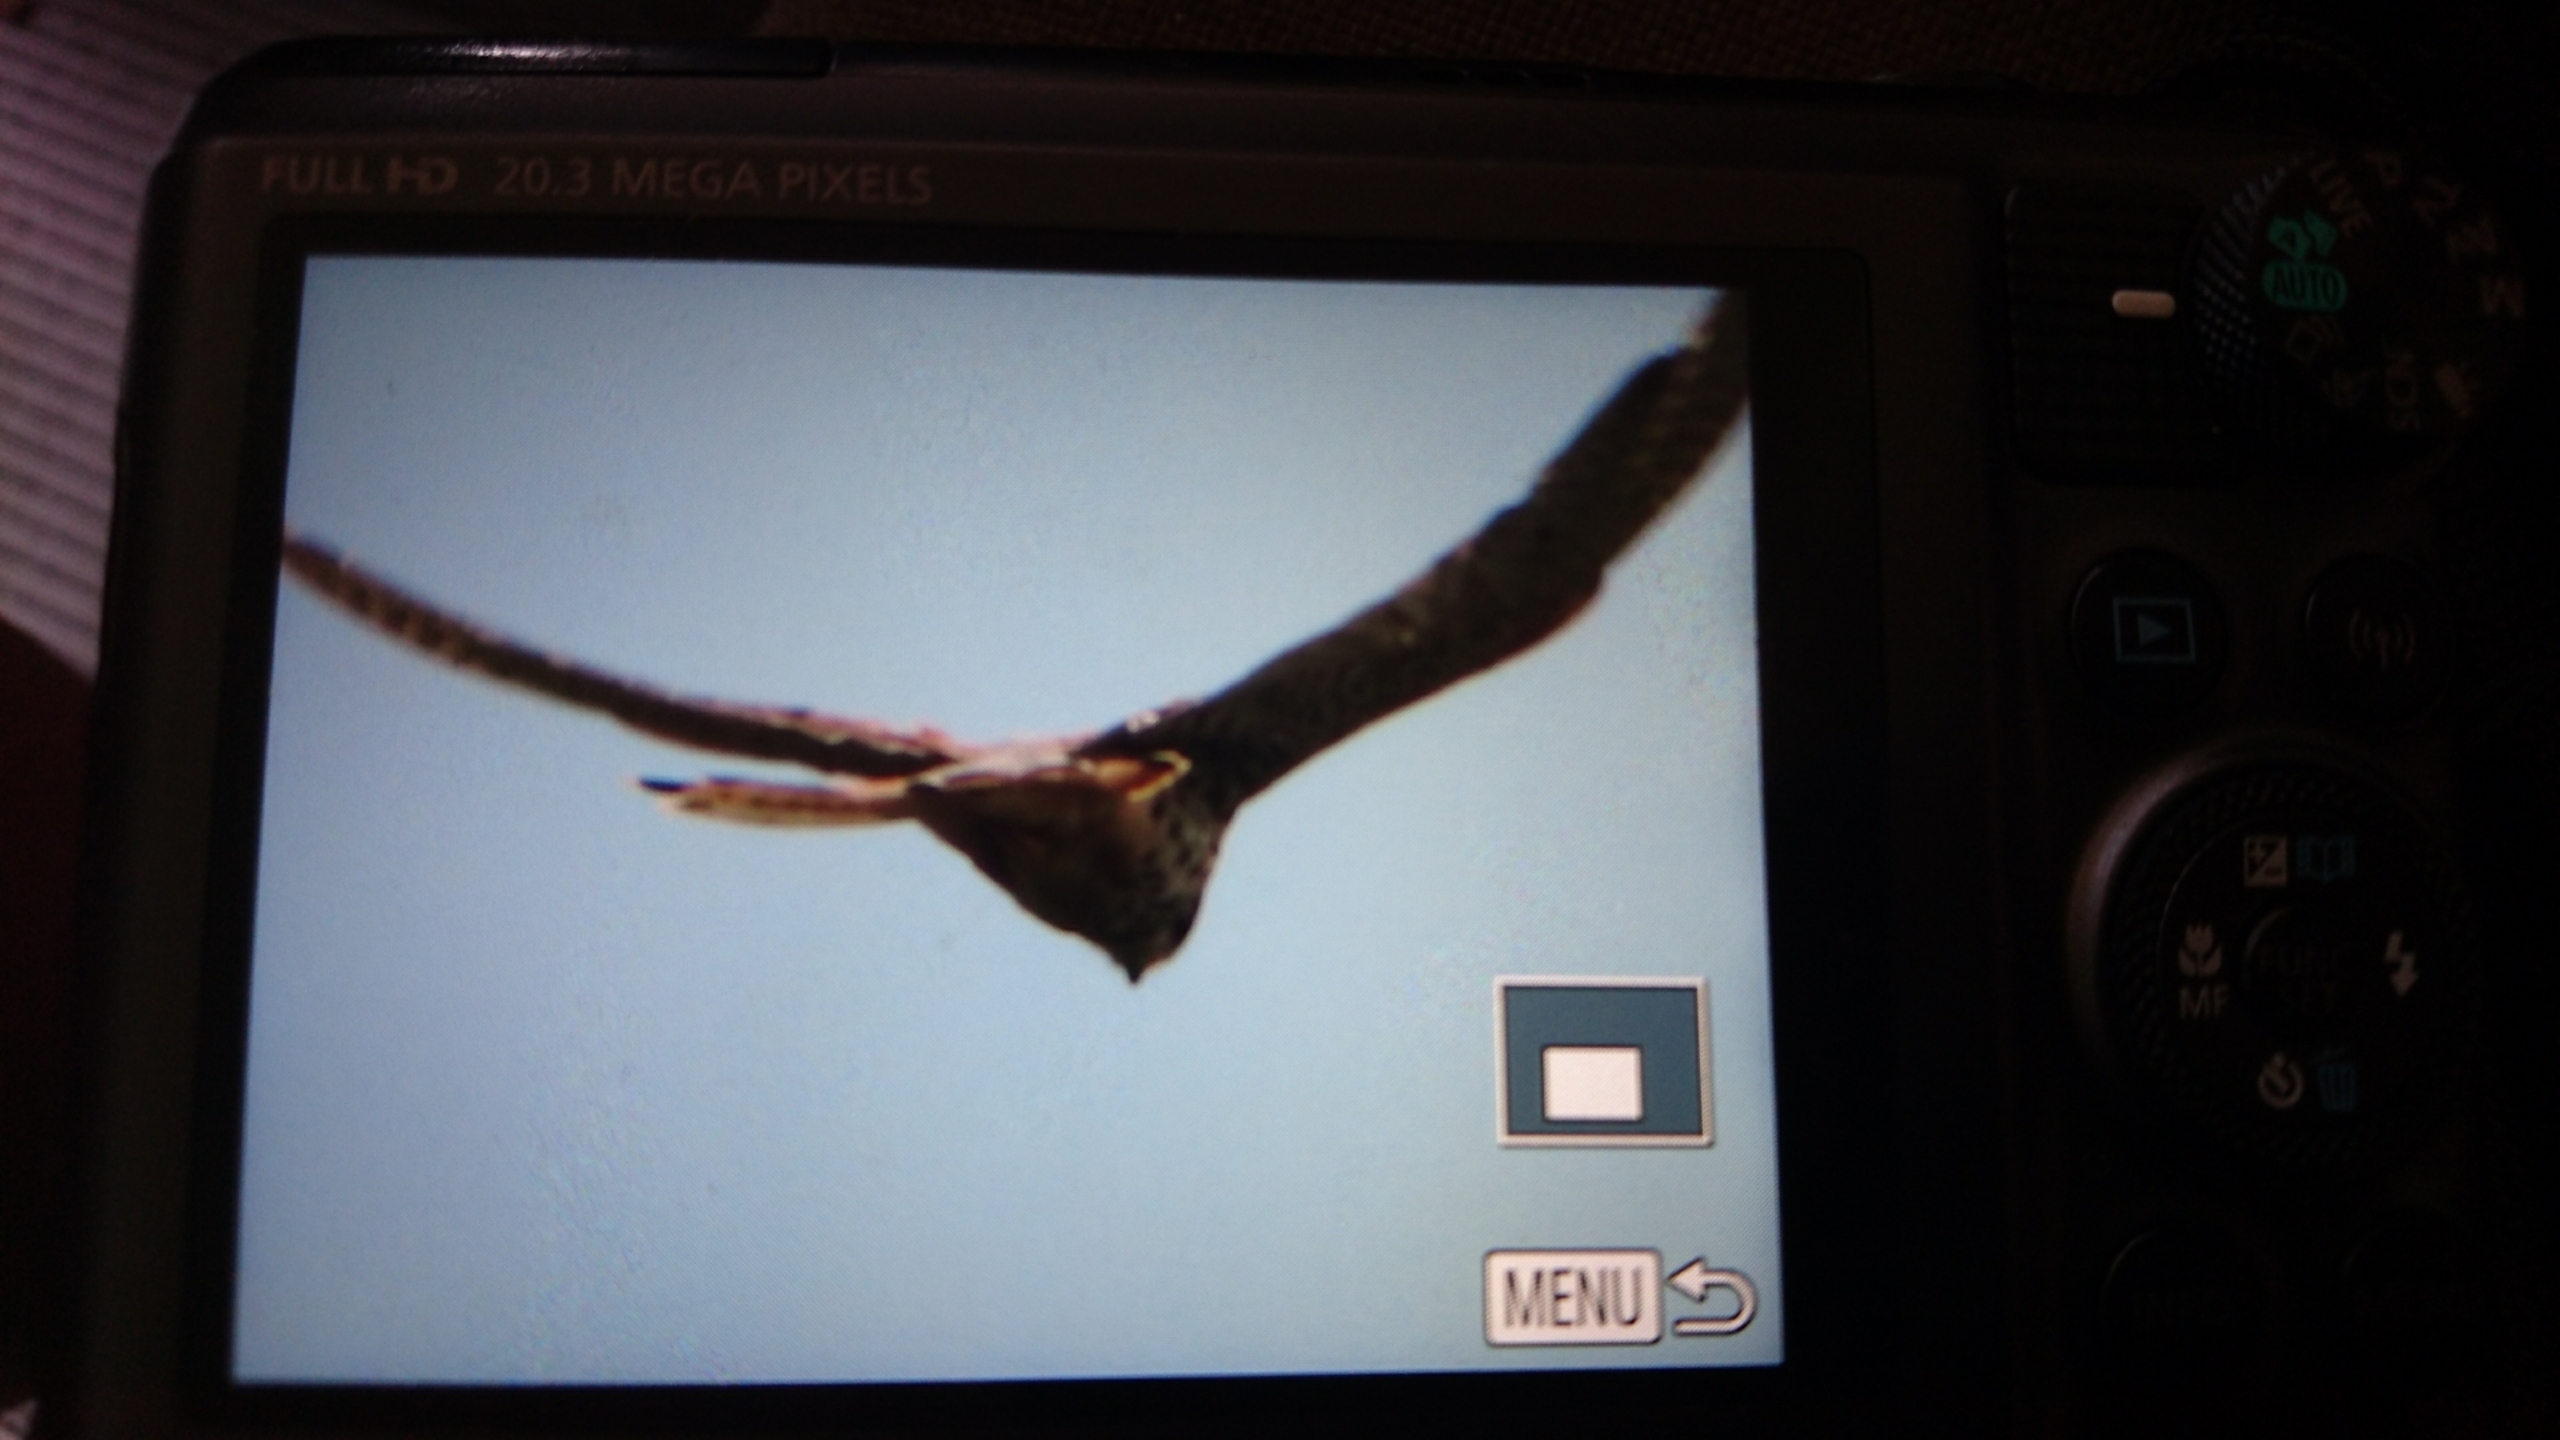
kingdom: Animalia
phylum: Chordata
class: Aves
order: Falconiformes
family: Falconidae
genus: Falco
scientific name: Falco tinnunculus
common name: Tårnfalk
